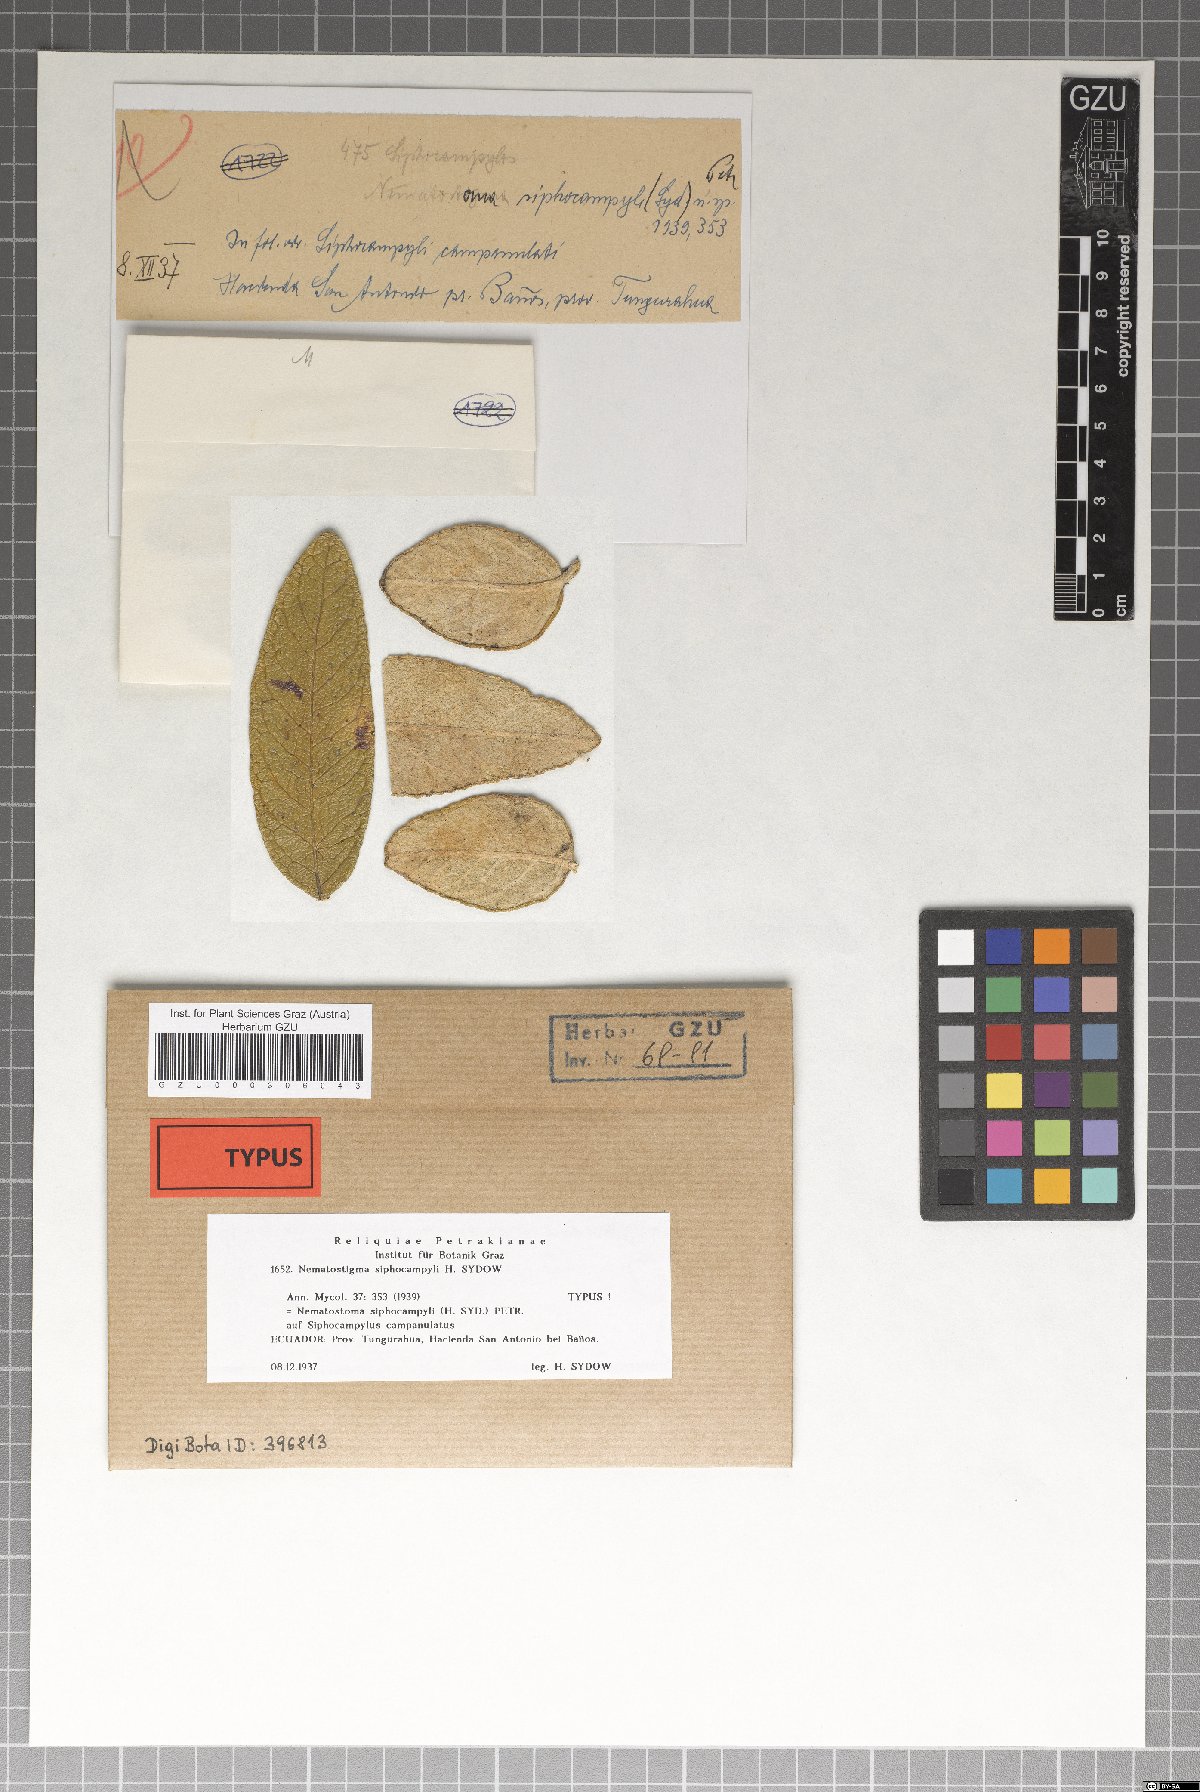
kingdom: Fungi
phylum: Ascomycota
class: Dothideomycetes
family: Pseudoperisporiaceae
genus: Nematostoma
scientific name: Nematostoma siphocampyli
